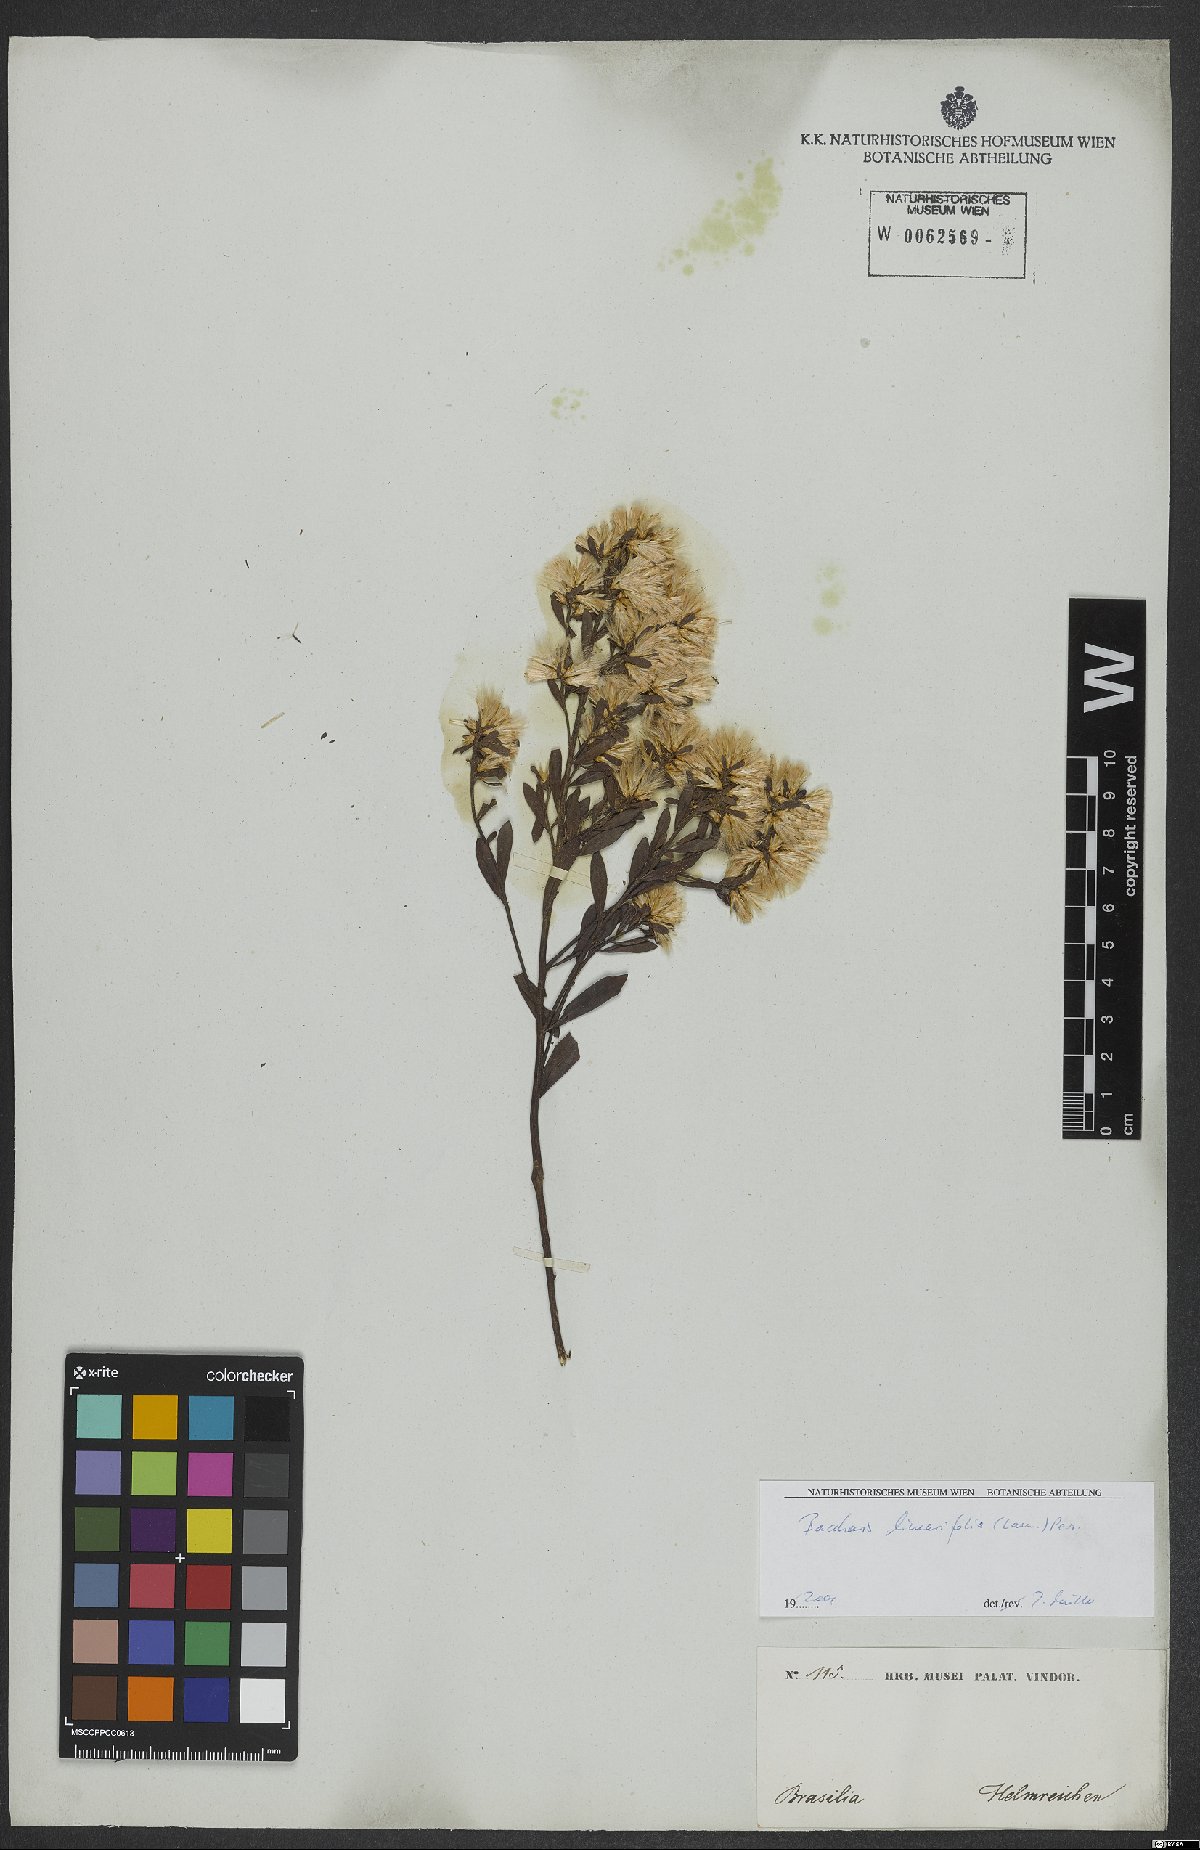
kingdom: Plantae
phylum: Tracheophyta
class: Magnoliopsida
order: Asterales
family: Asteraceae
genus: Baccharis
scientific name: Baccharis linearifolia
